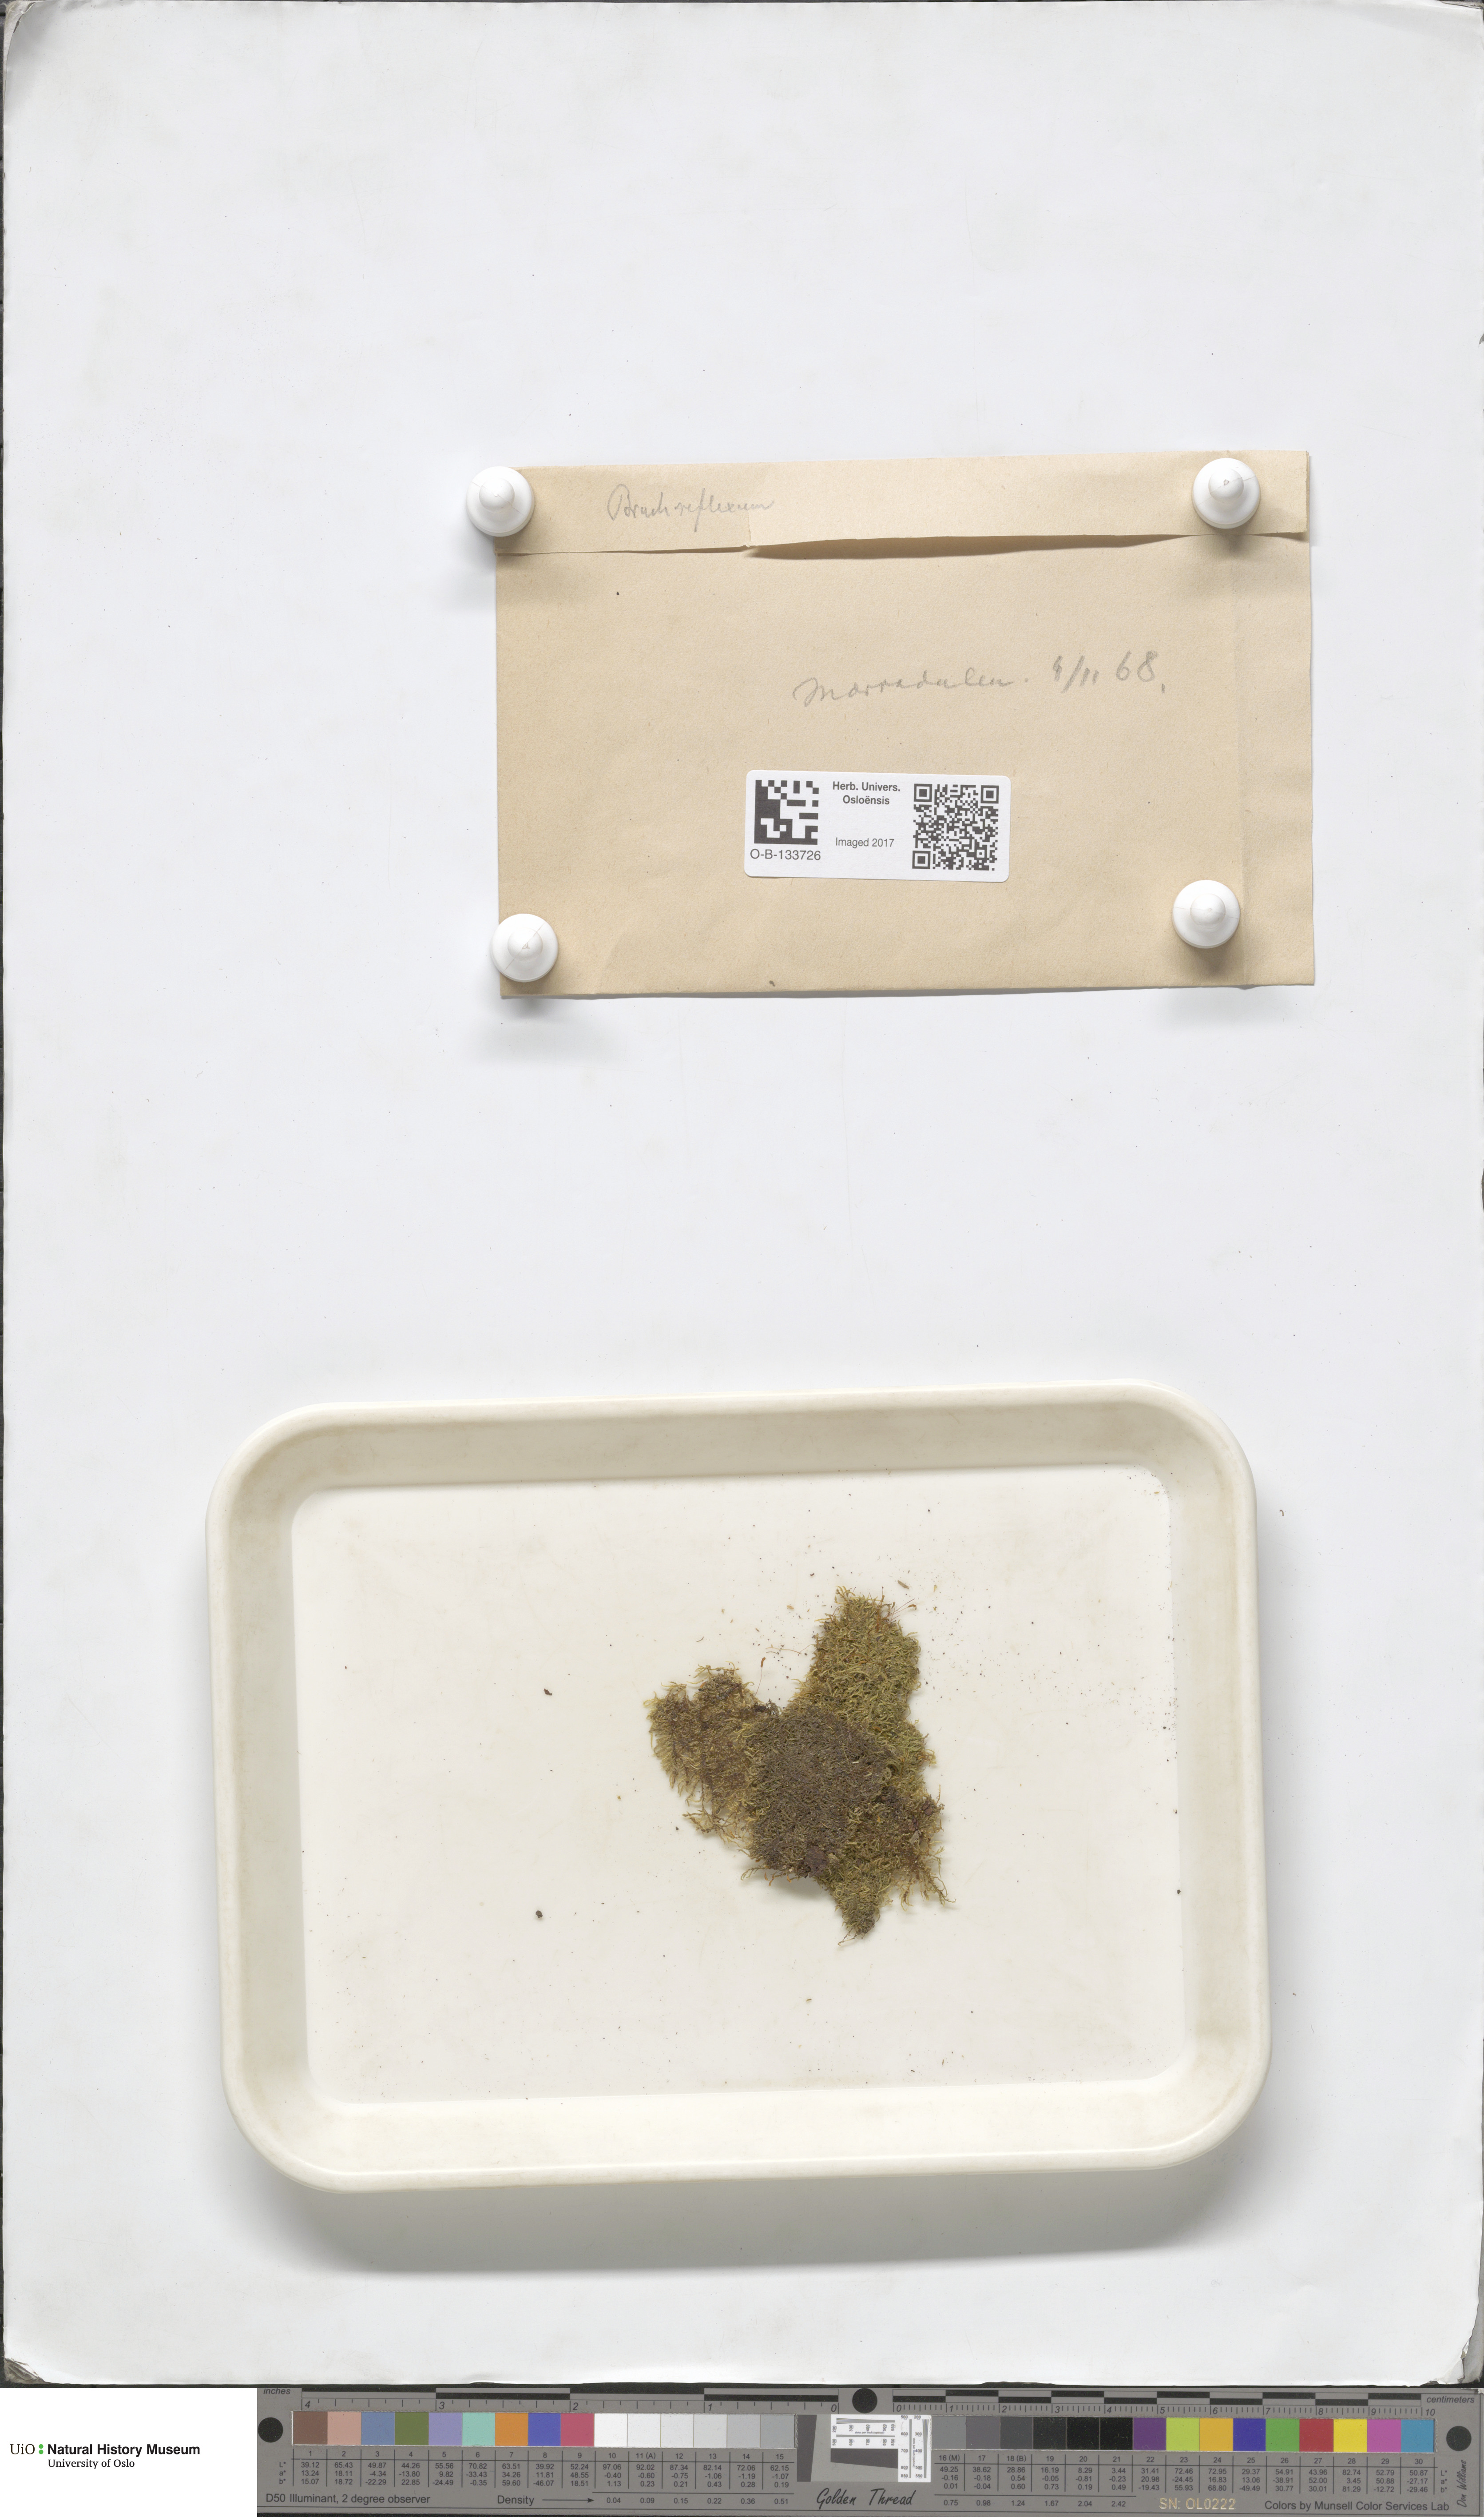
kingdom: Plantae
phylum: Bryophyta
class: Bryopsida
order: Hypnales
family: Brachytheciaceae
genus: Sciuro-hypnum
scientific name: Sciuro-hypnum reflexum
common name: Reflexed feather-moss
